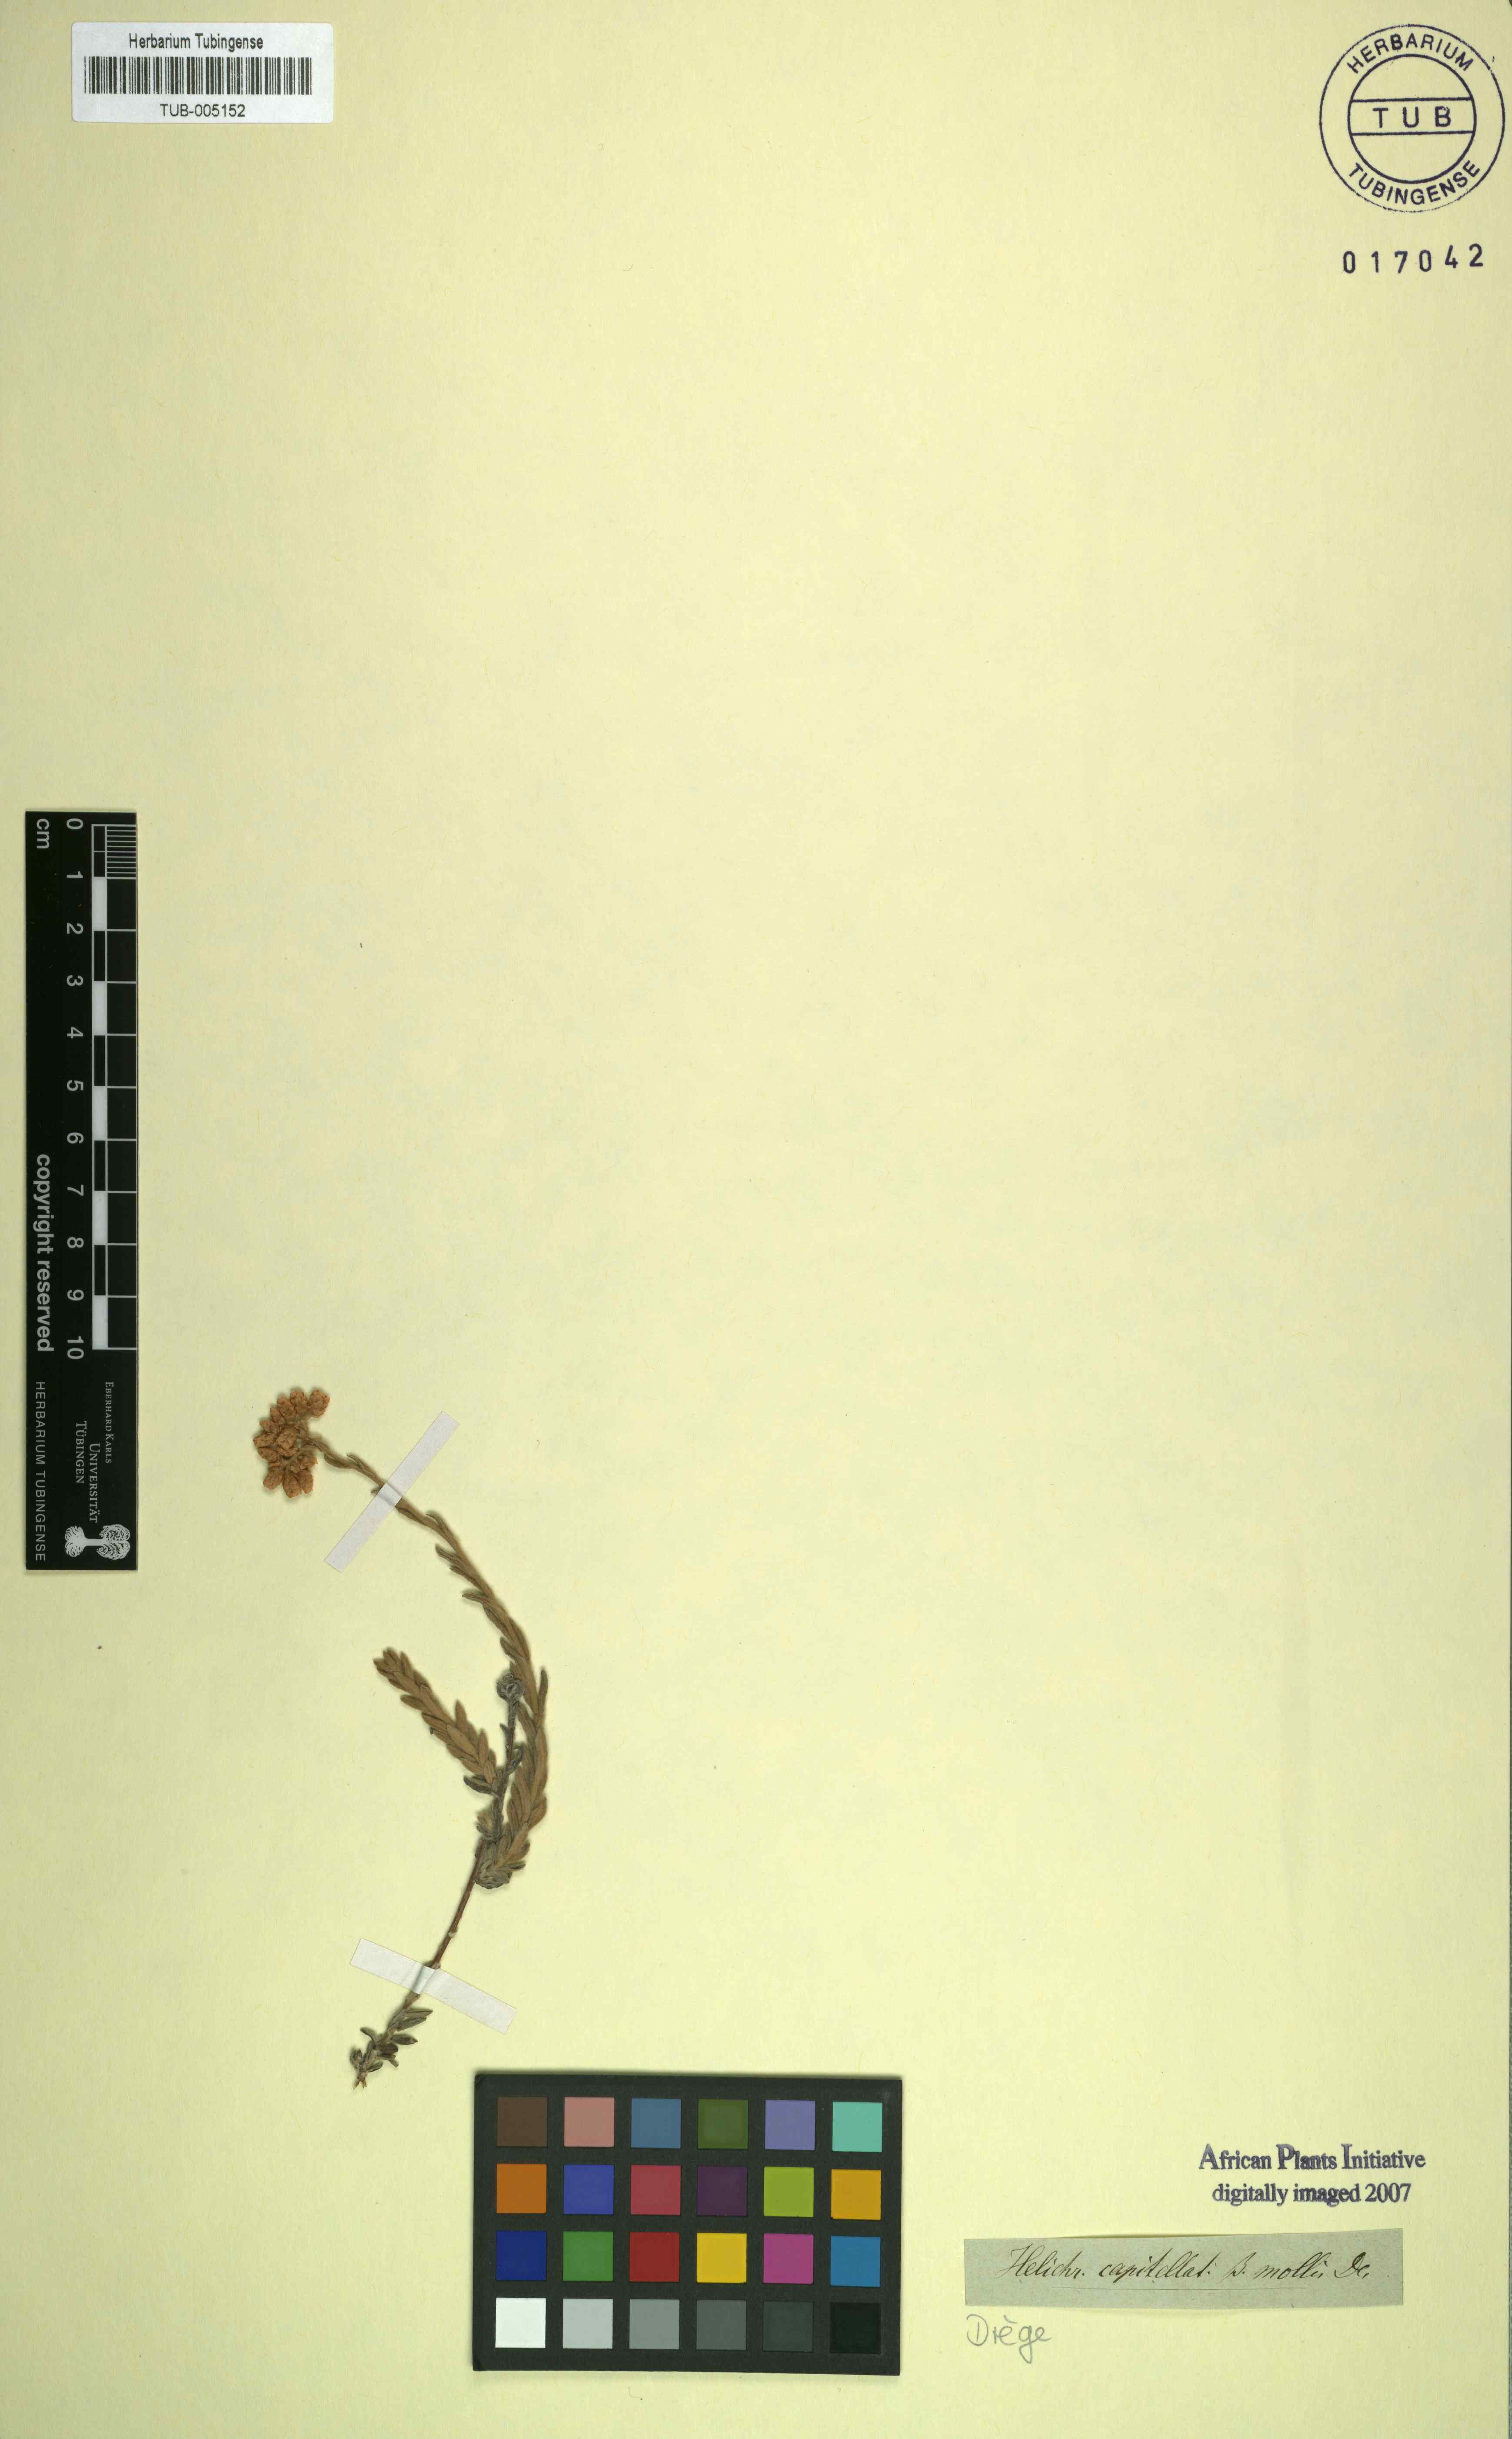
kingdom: Plantae
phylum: Tracheophyta
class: Magnoliopsida
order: Asterales
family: Asteraceae
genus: Helichrysum
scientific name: Helichrysum helianthemifolium
